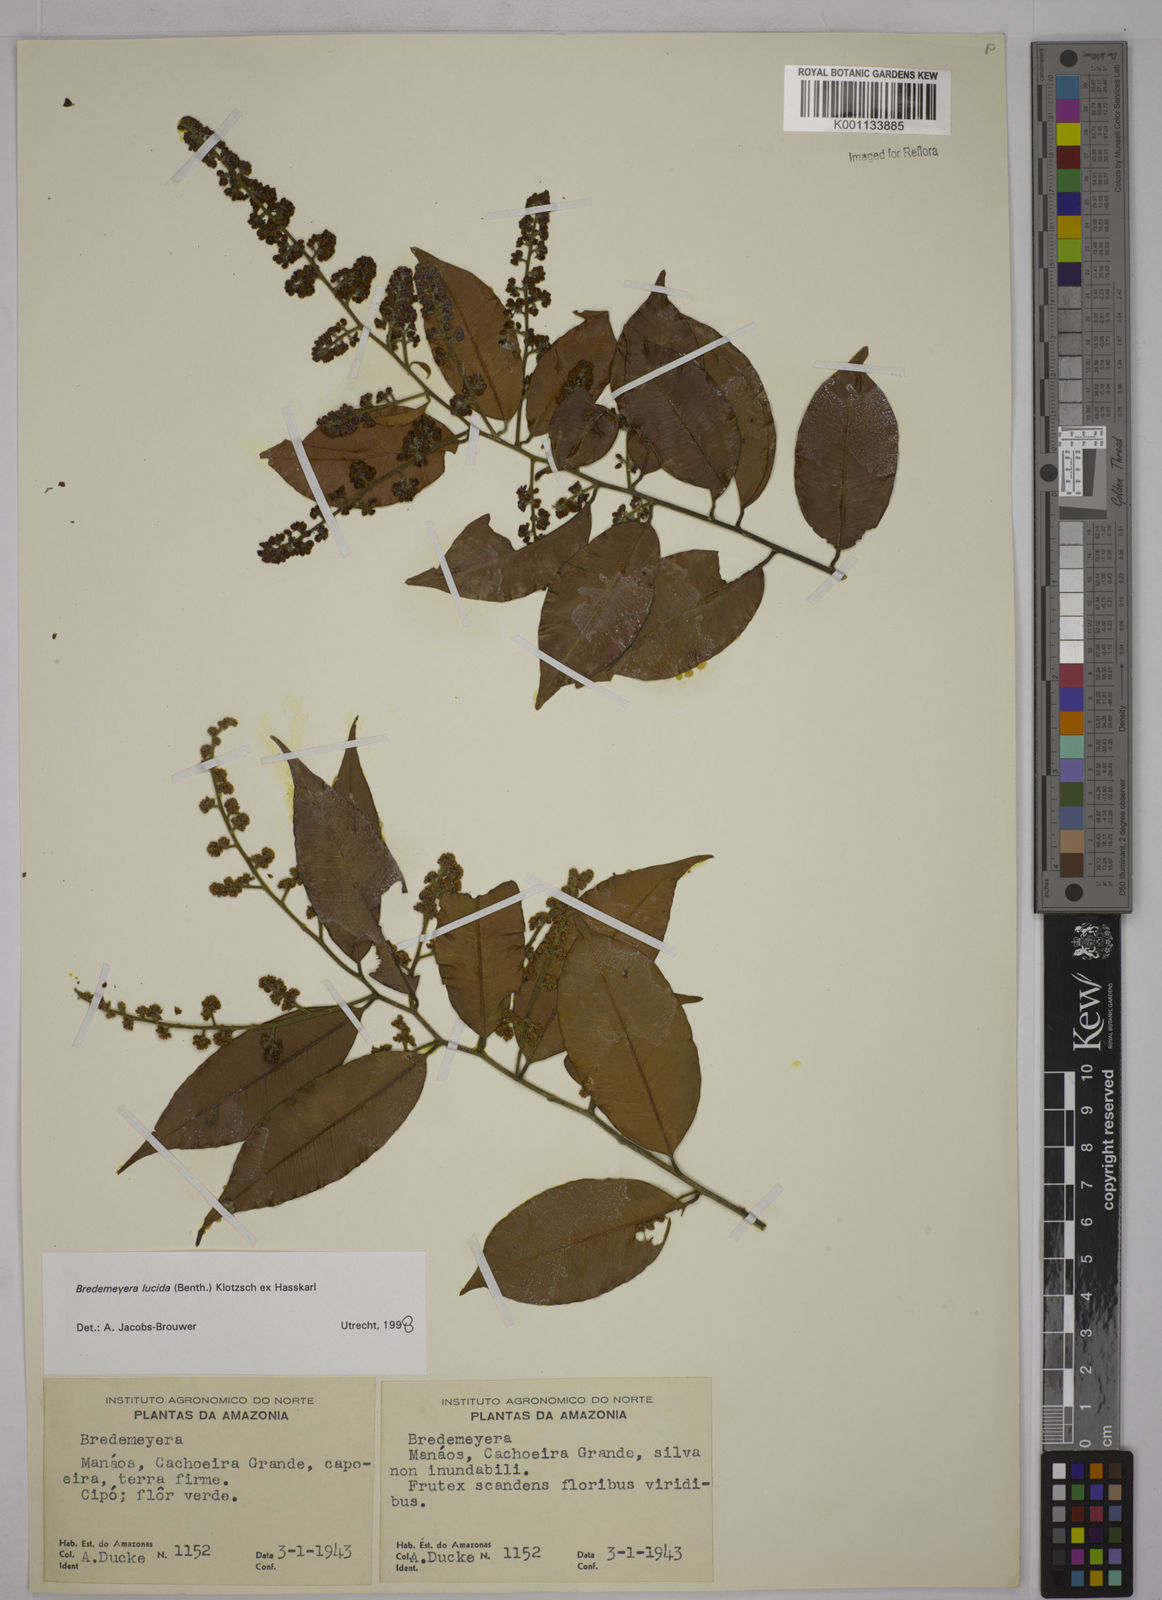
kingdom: Plantae
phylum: Tracheophyta
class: Magnoliopsida
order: Fabales
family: Polygalaceae
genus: Bredemeyera
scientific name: Bredemeyera lucida
